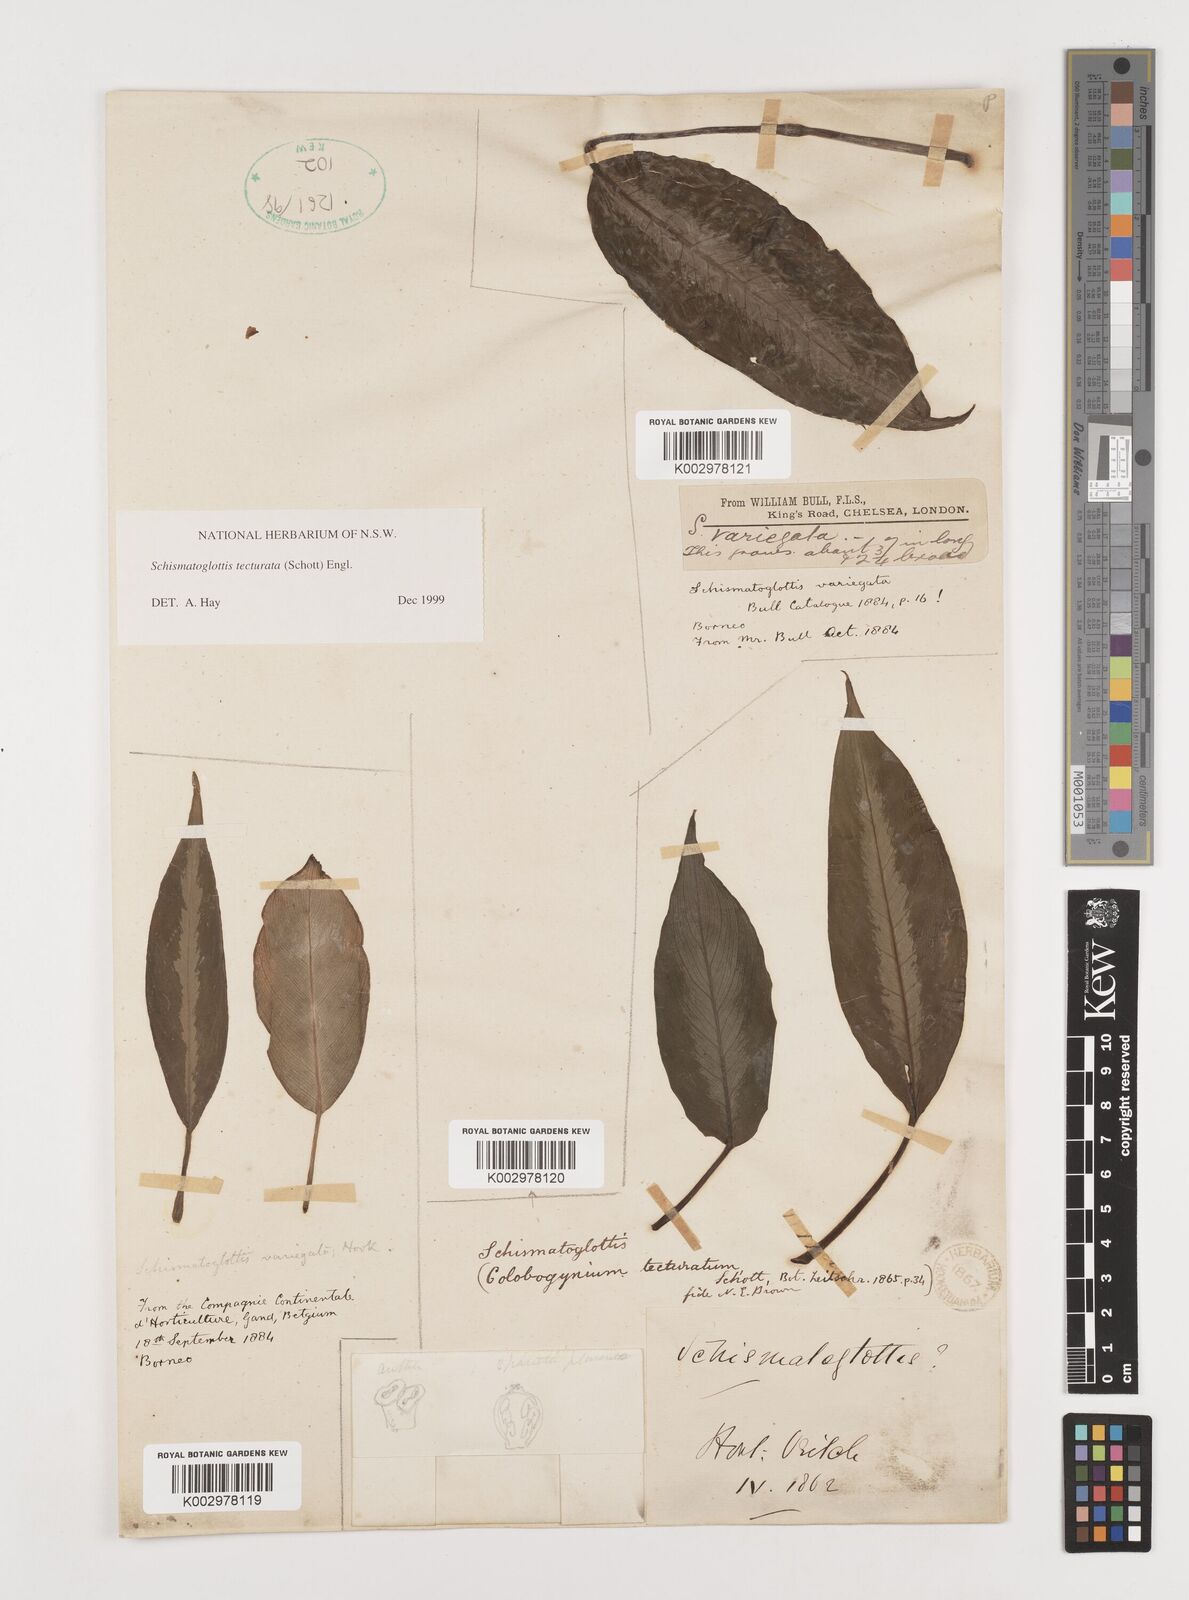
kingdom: Plantae
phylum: Tracheophyta
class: Liliopsida
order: Zingiberales
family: Costaceae
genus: Colobogynium
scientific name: Colobogynium variegatum
